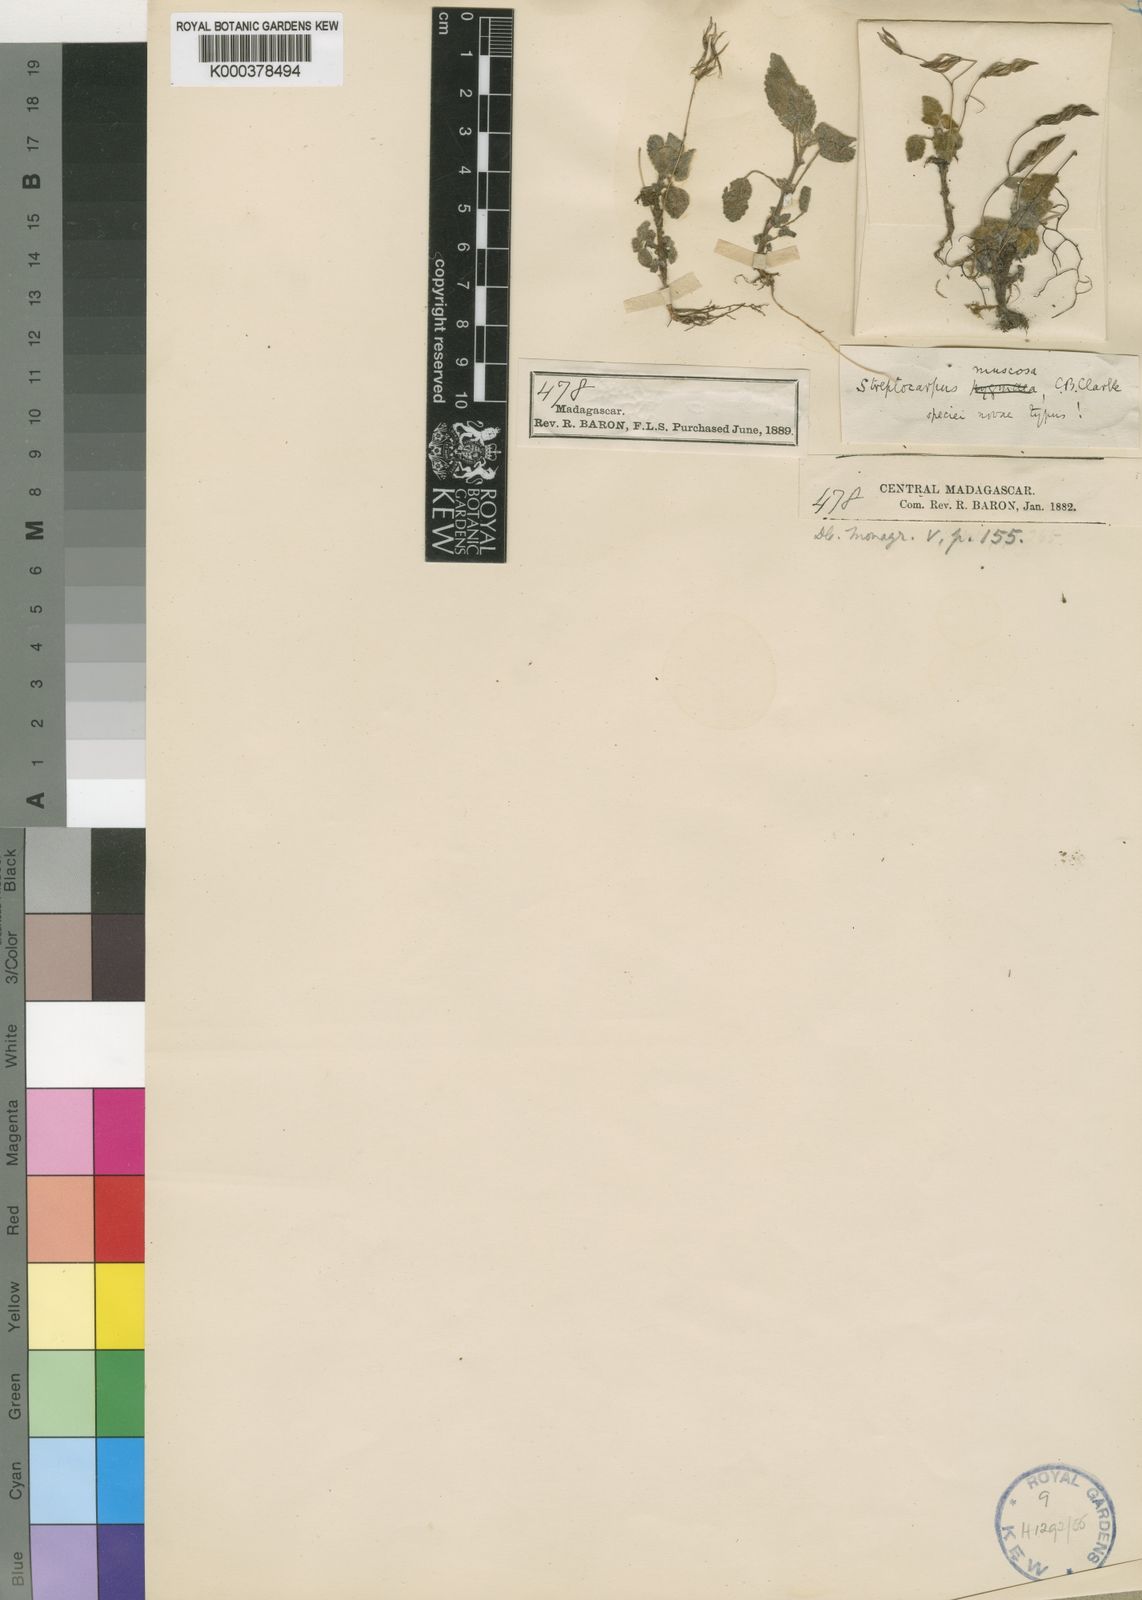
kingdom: Plantae
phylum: Tracheophyta
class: Magnoliopsida
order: Lamiales
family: Gesneriaceae
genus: Streptocarpus
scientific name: Streptocarpus muscosa
